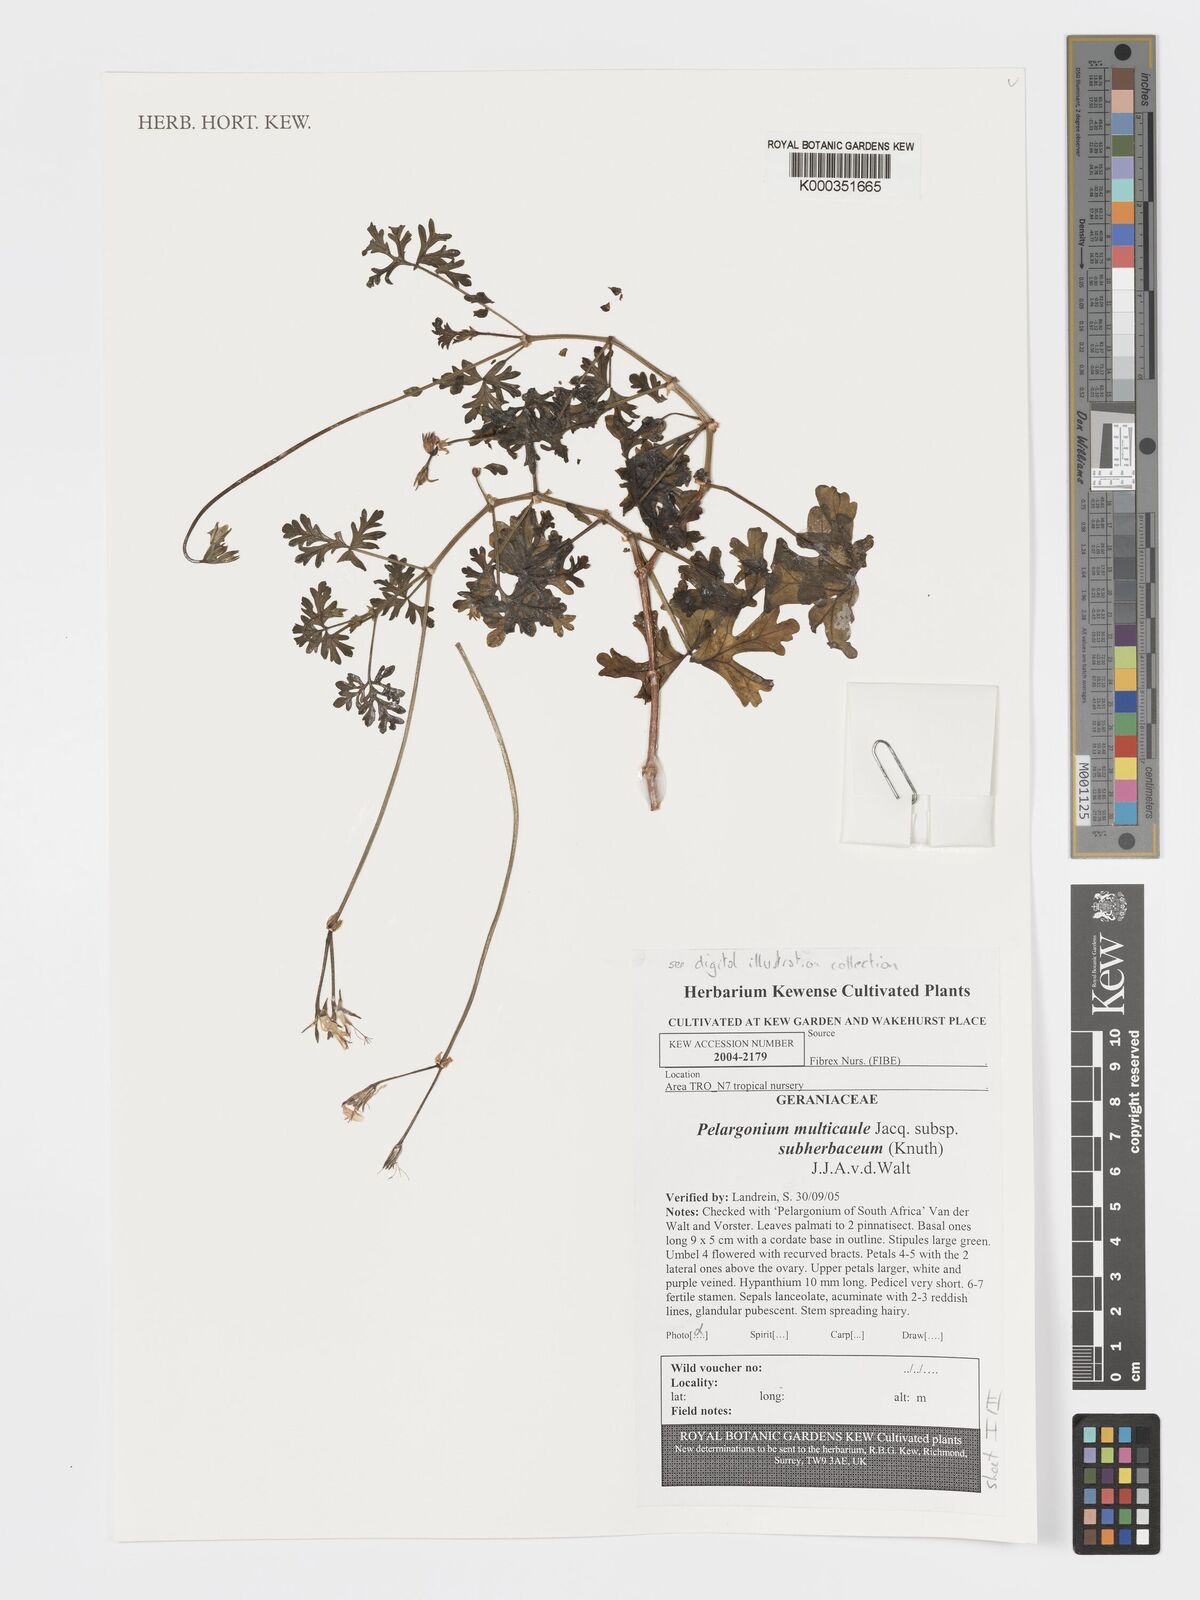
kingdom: Plantae
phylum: Tracheophyta
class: Magnoliopsida
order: Geraniales
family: Geraniaceae
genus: Pelargonium
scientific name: Pelargonium multicaule
